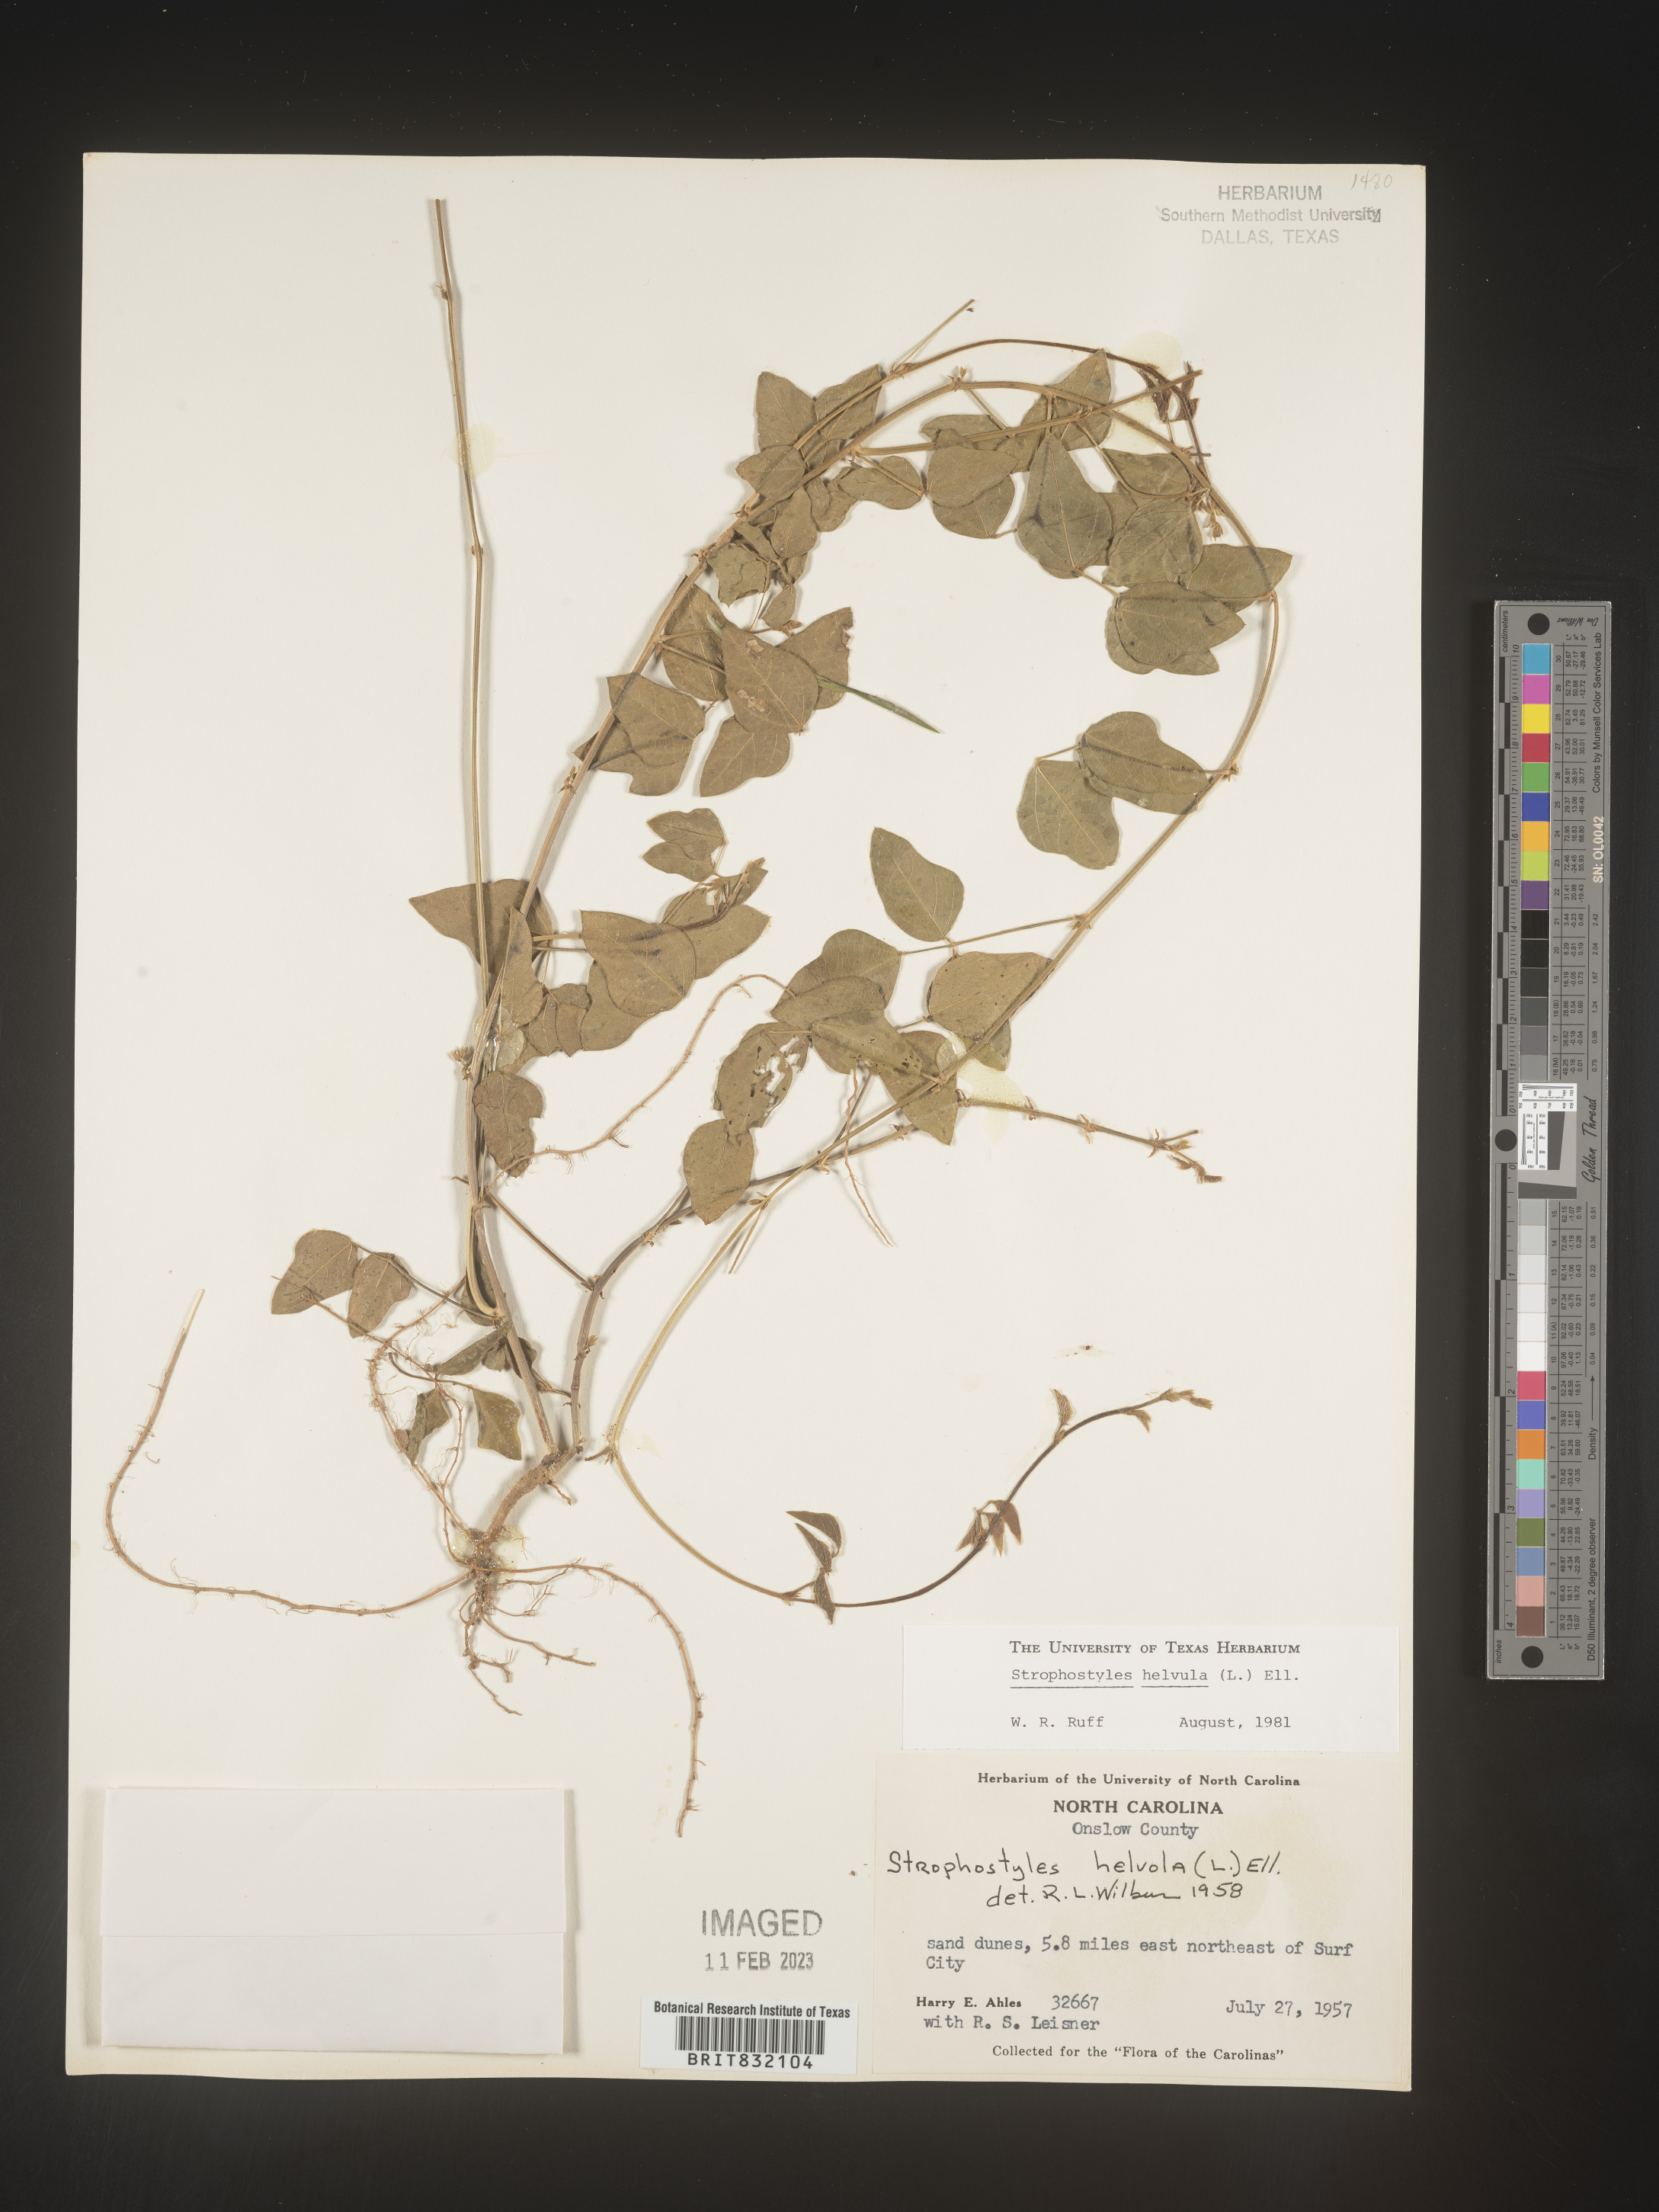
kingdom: Plantae
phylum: Tracheophyta
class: Magnoliopsida
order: Fabales
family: Fabaceae
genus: Strophostyles
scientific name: Strophostyles helvola
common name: Trailing wild bean
